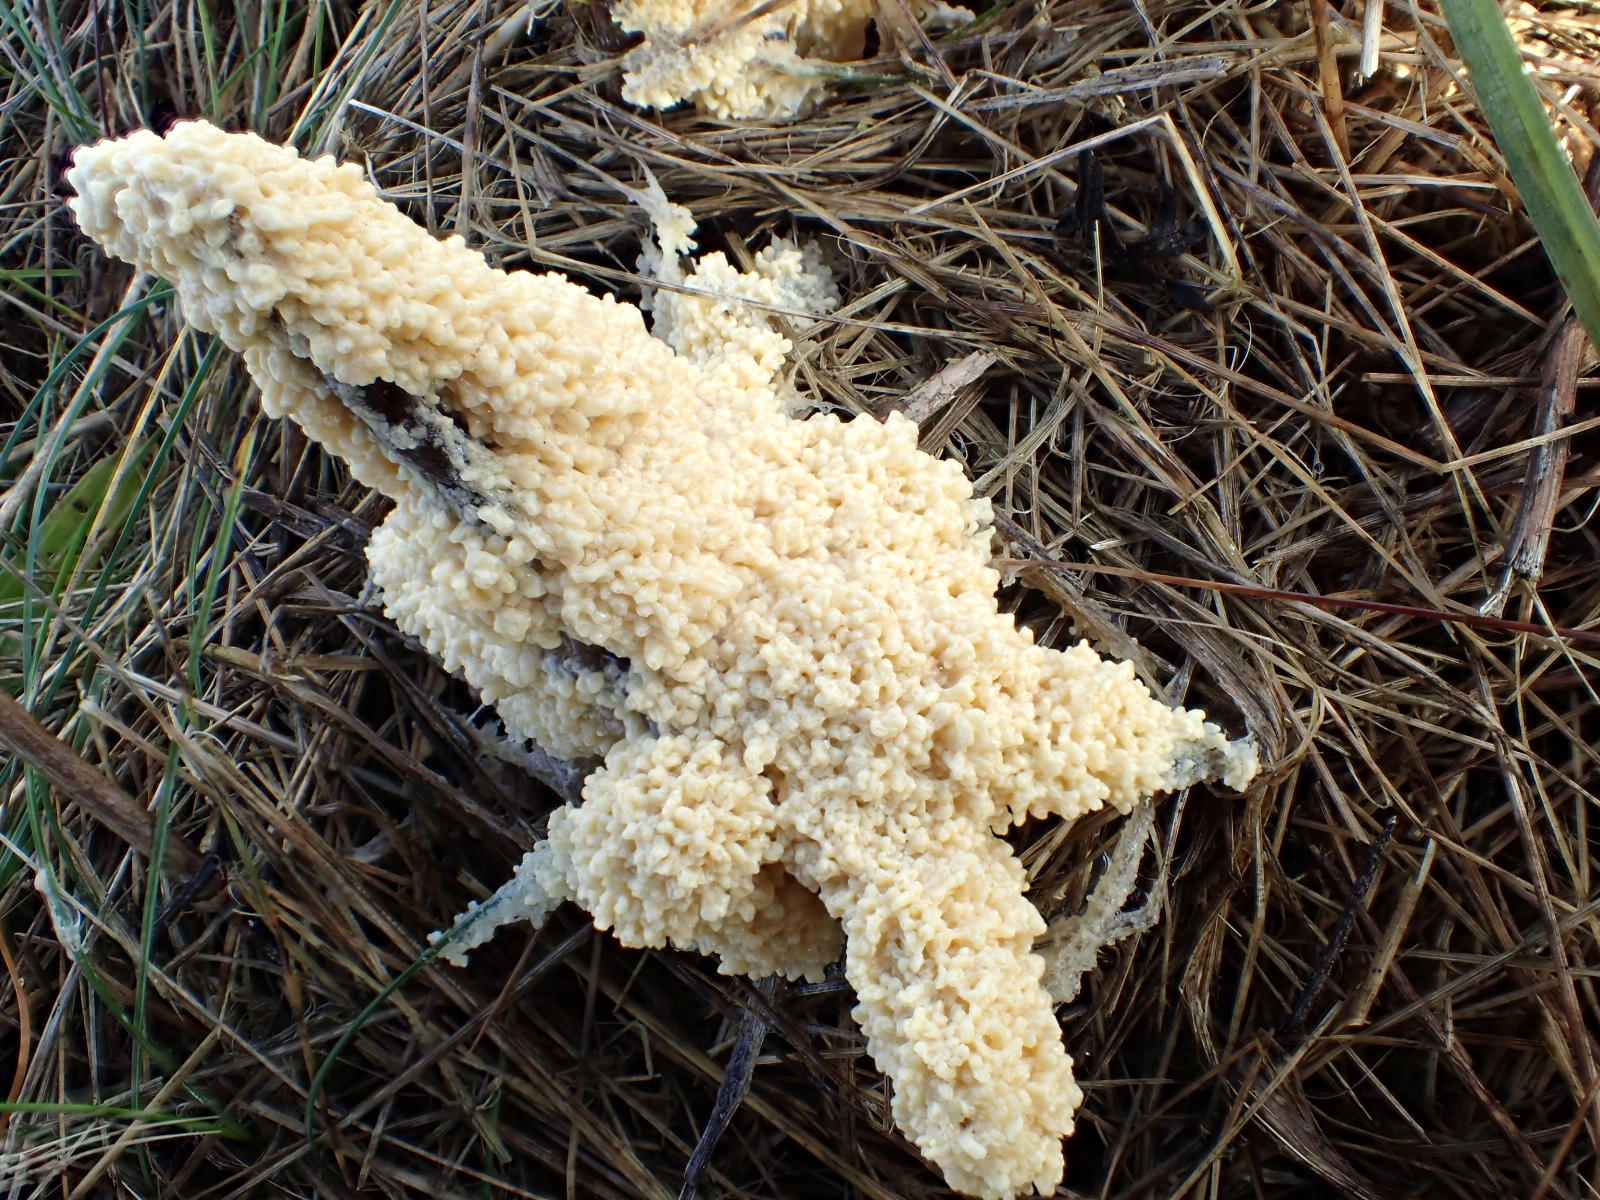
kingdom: Protozoa
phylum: Mycetozoa
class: Myxomycetes
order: Physarales
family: Physaraceae
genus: Didymium
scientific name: Didymium
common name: urteskum
